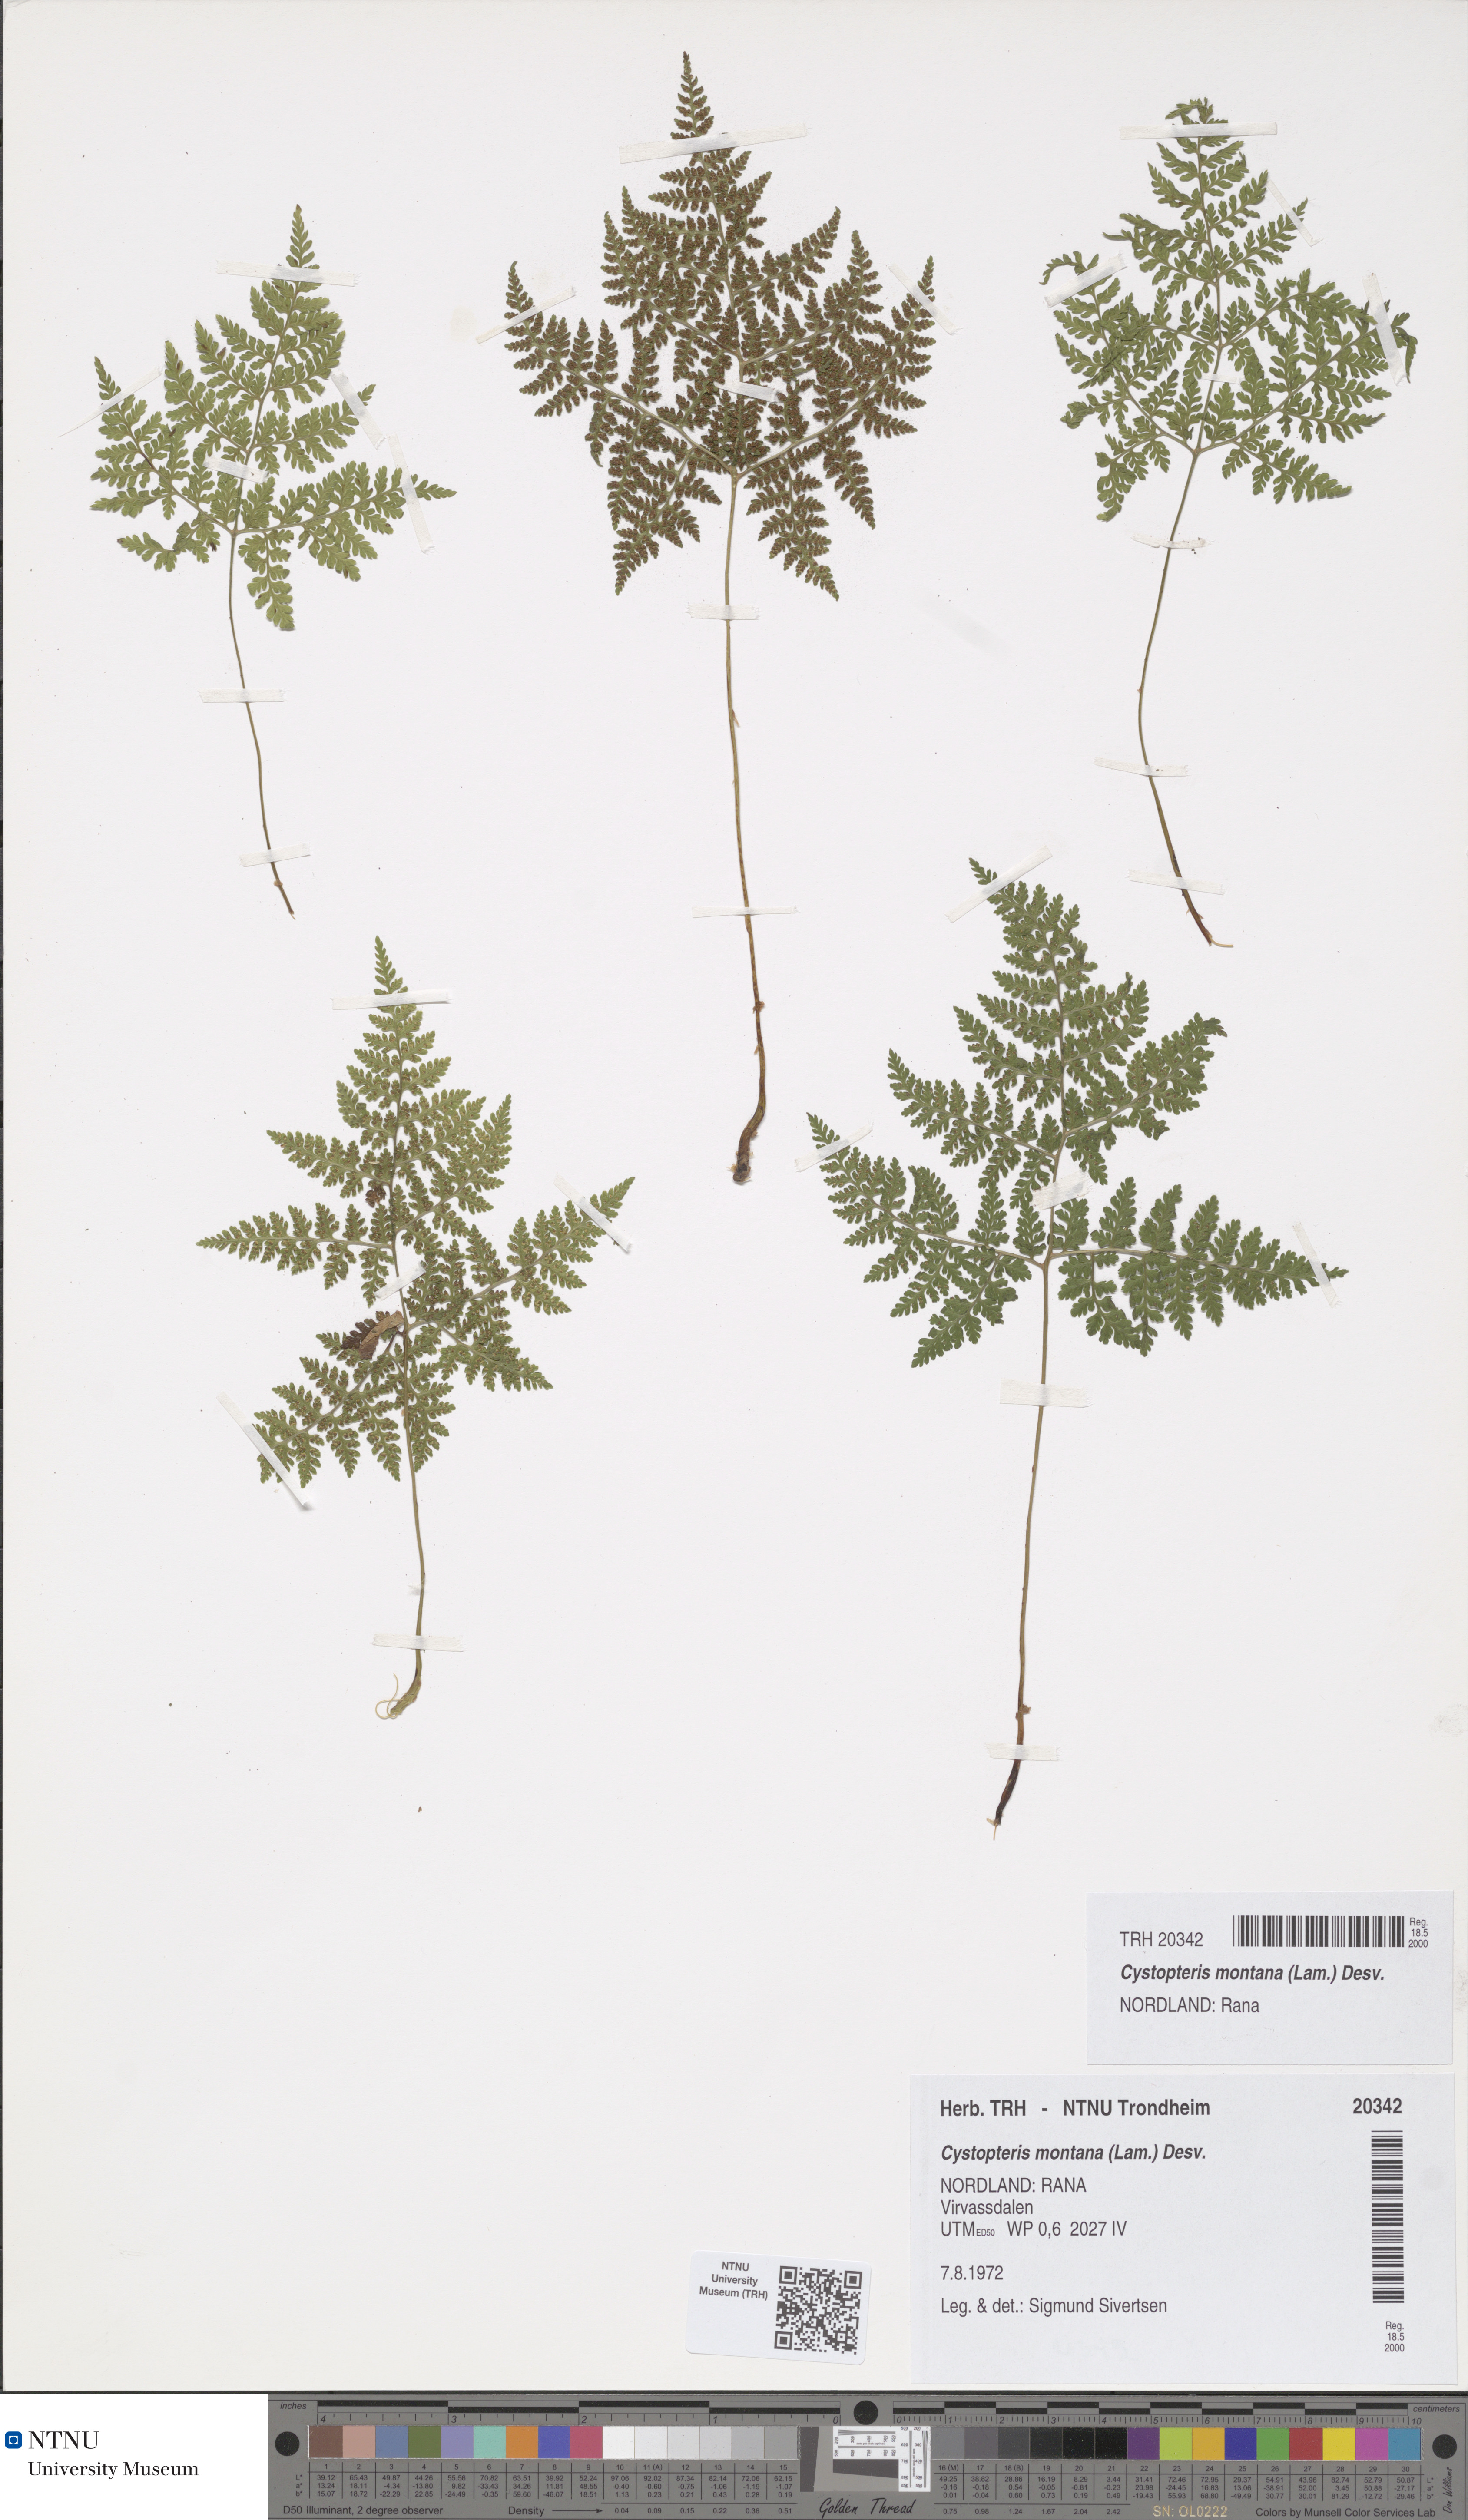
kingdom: Plantae
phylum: Tracheophyta
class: Polypodiopsida
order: Polypodiales
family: Cystopteridaceae
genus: Cystopteris
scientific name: Cystopteris montana
